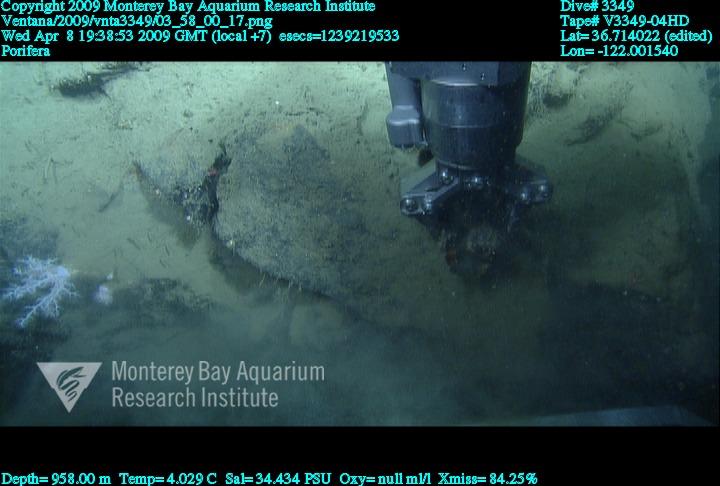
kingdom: Animalia
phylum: Porifera
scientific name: Porifera
